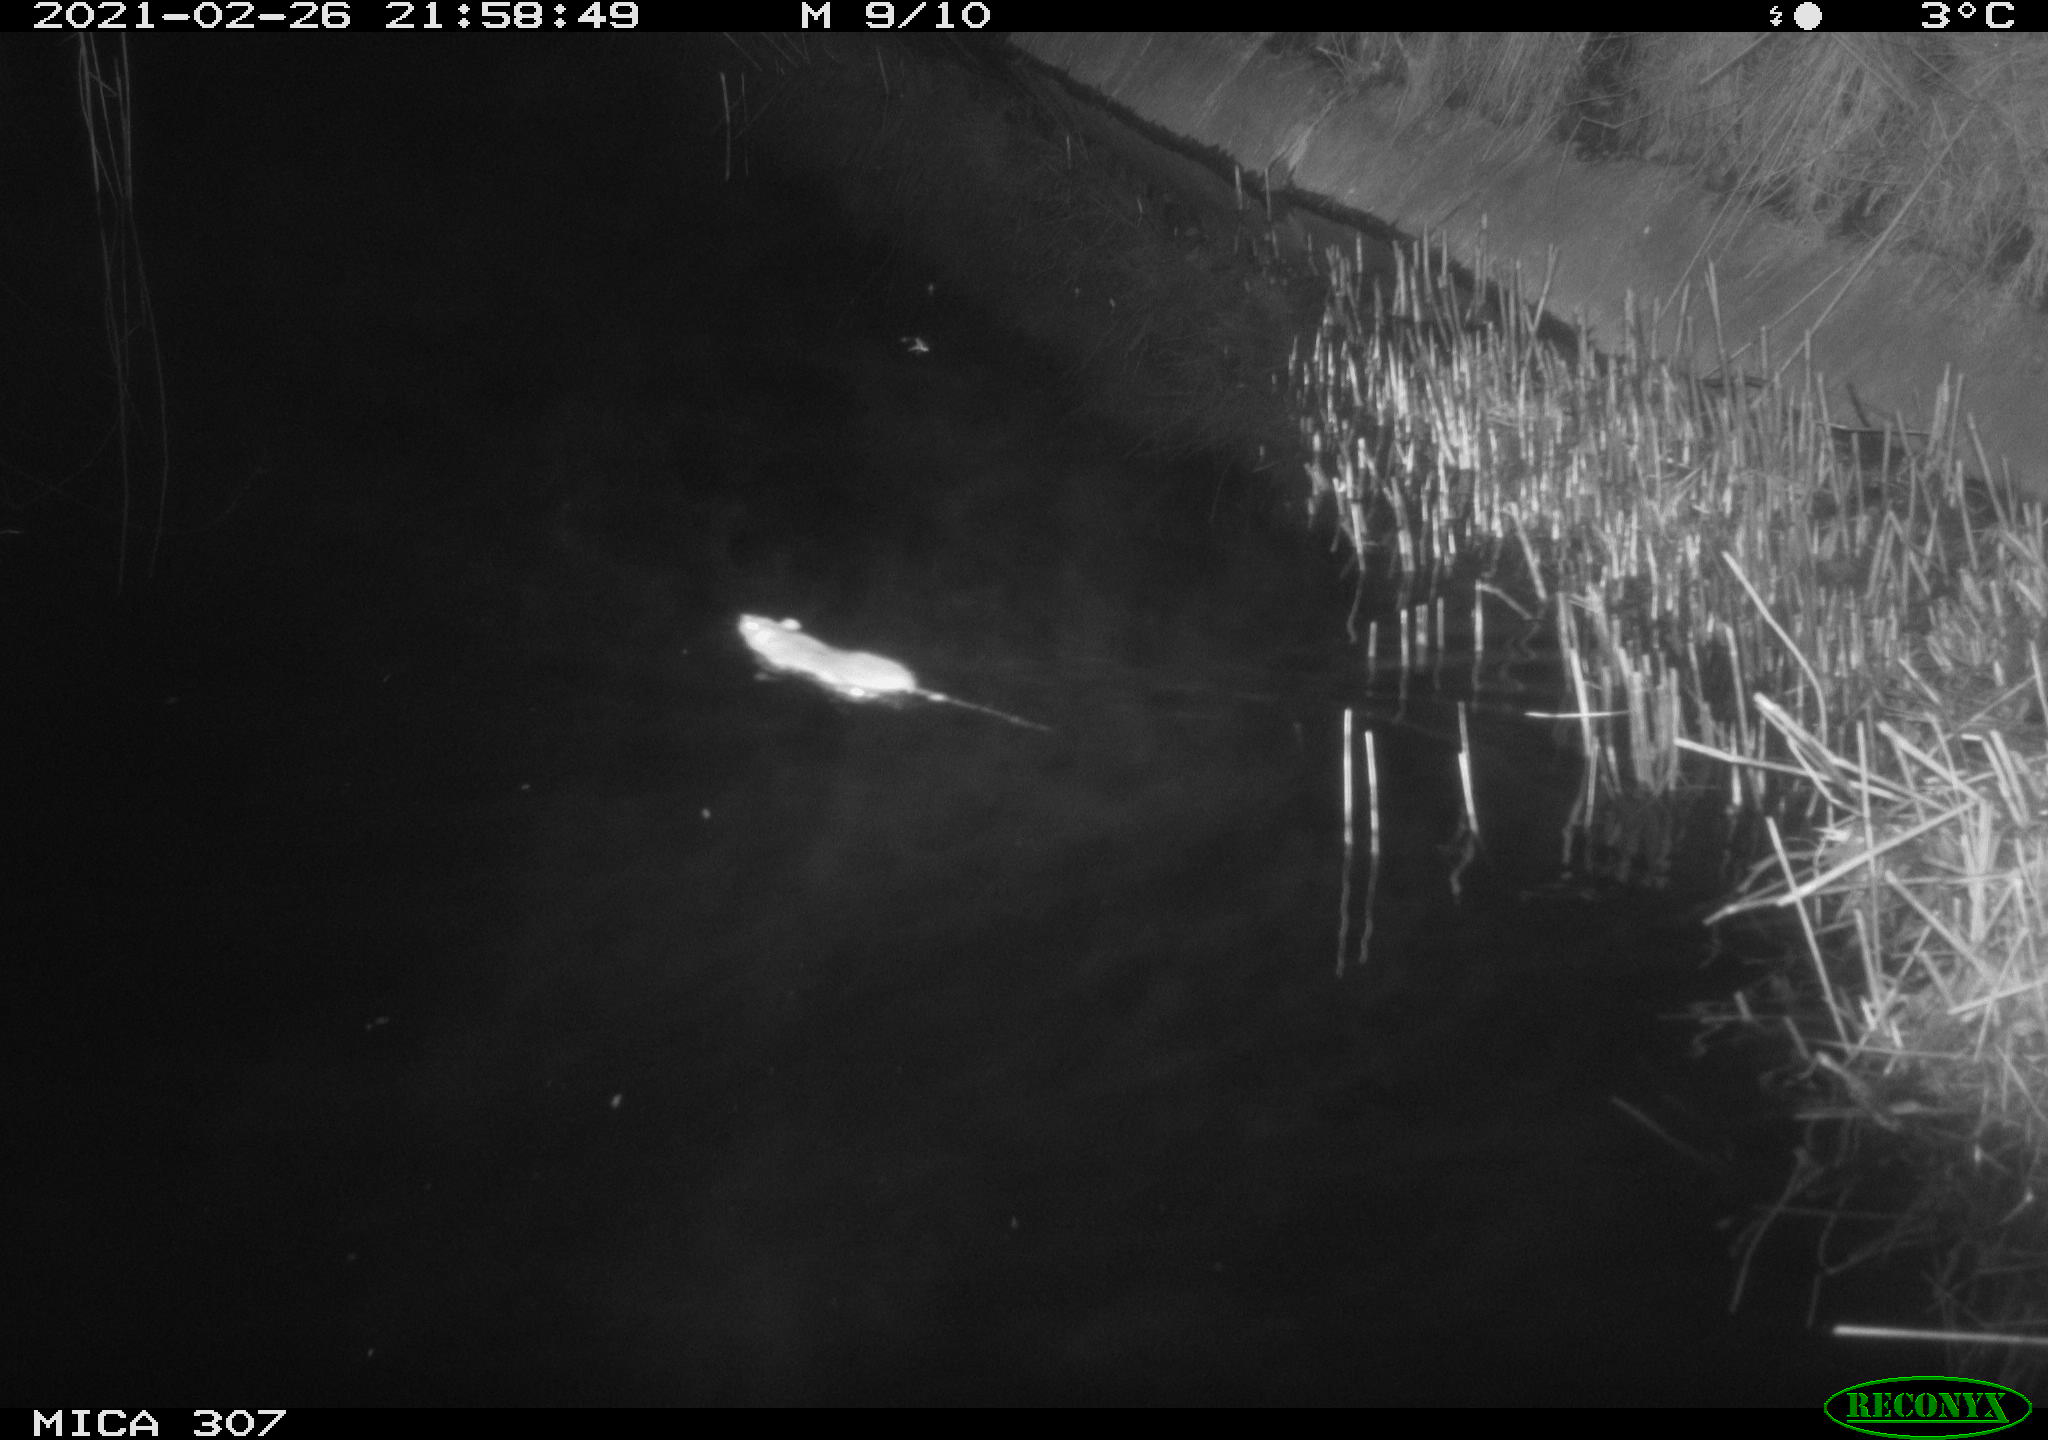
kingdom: Animalia
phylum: Chordata
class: Mammalia
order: Rodentia
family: Muridae
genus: Rattus
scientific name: Rattus norvegicus
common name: Brown rat
